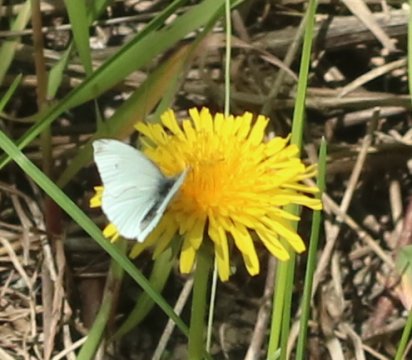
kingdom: Animalia
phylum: Arthropoda
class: Insecta
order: Lepidoptera
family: Pieridae
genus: Pieris
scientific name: Pieris rapae
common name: Cabbage White
